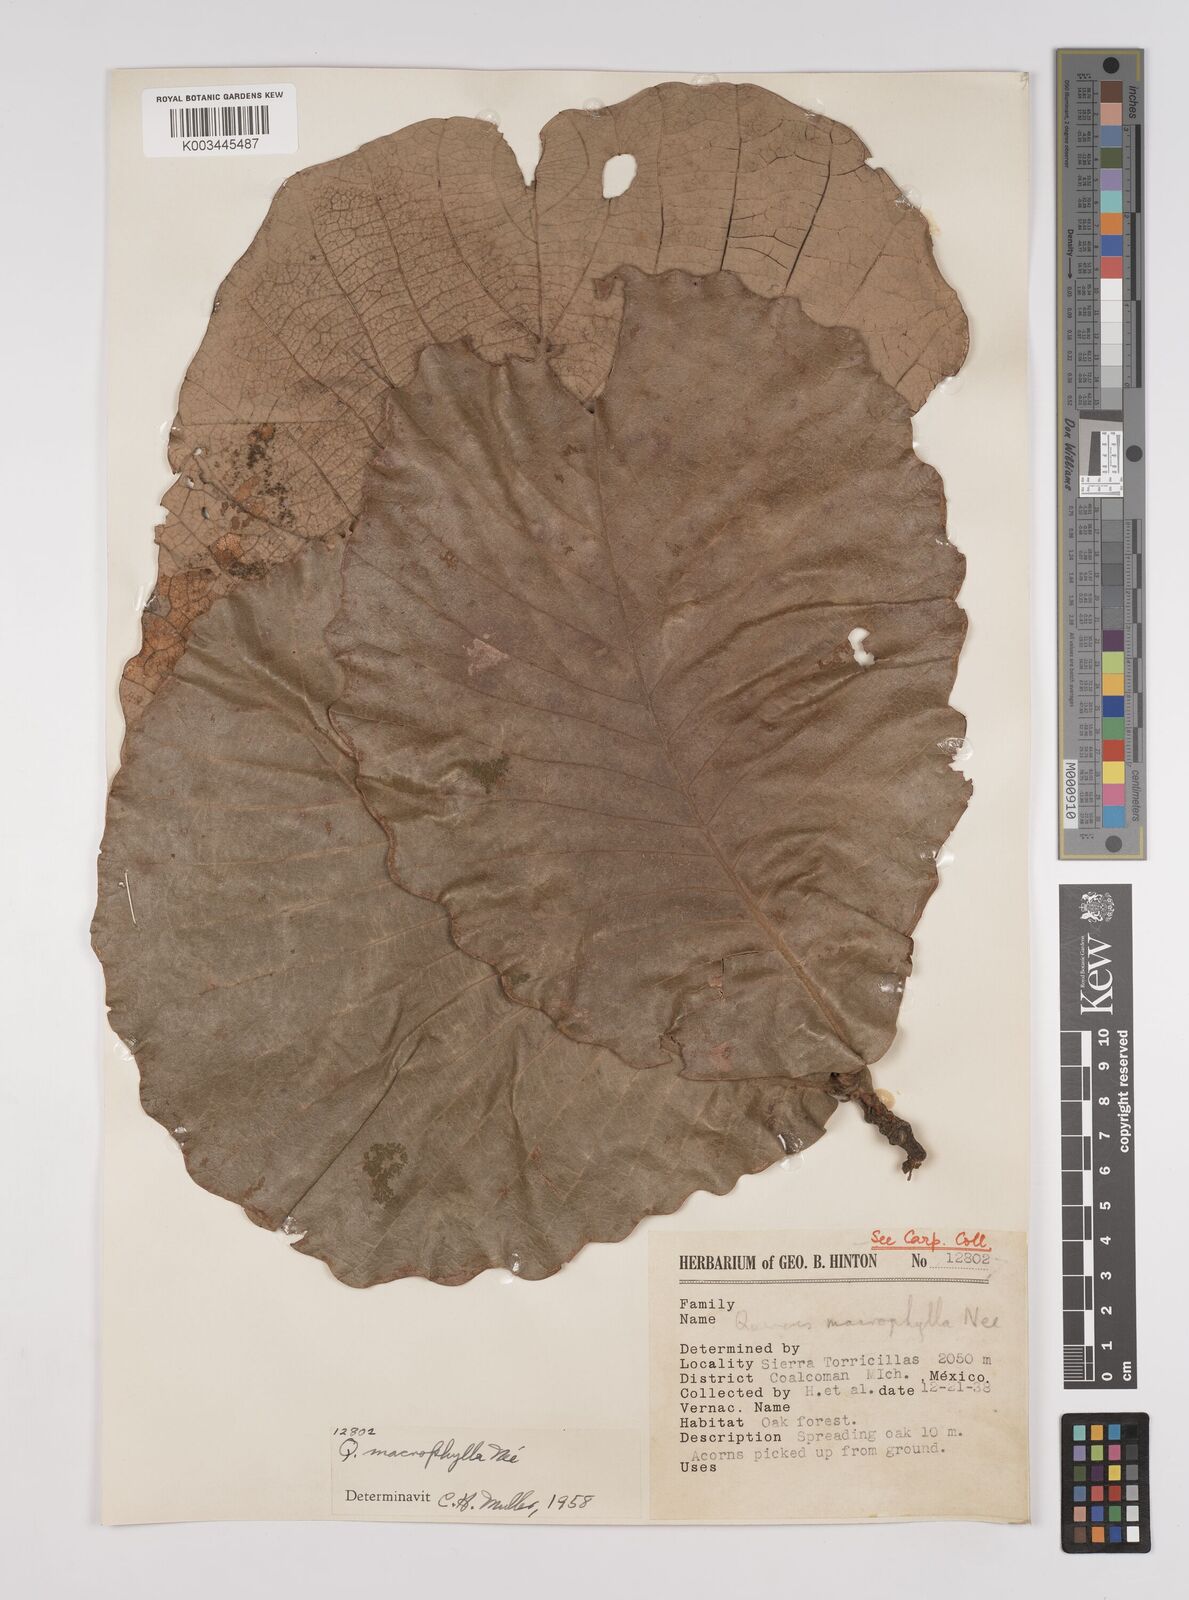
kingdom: Plantae
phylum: Tracheophyta
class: Magnoliopsida
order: Fagales
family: Fagaceae
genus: Quercus
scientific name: Quercus
